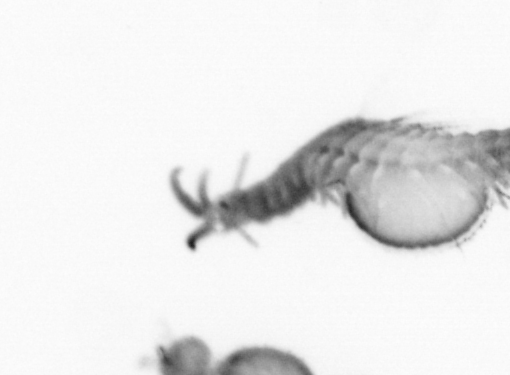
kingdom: Animalia
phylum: Annelida
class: Polychaeta
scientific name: Polychaeta
